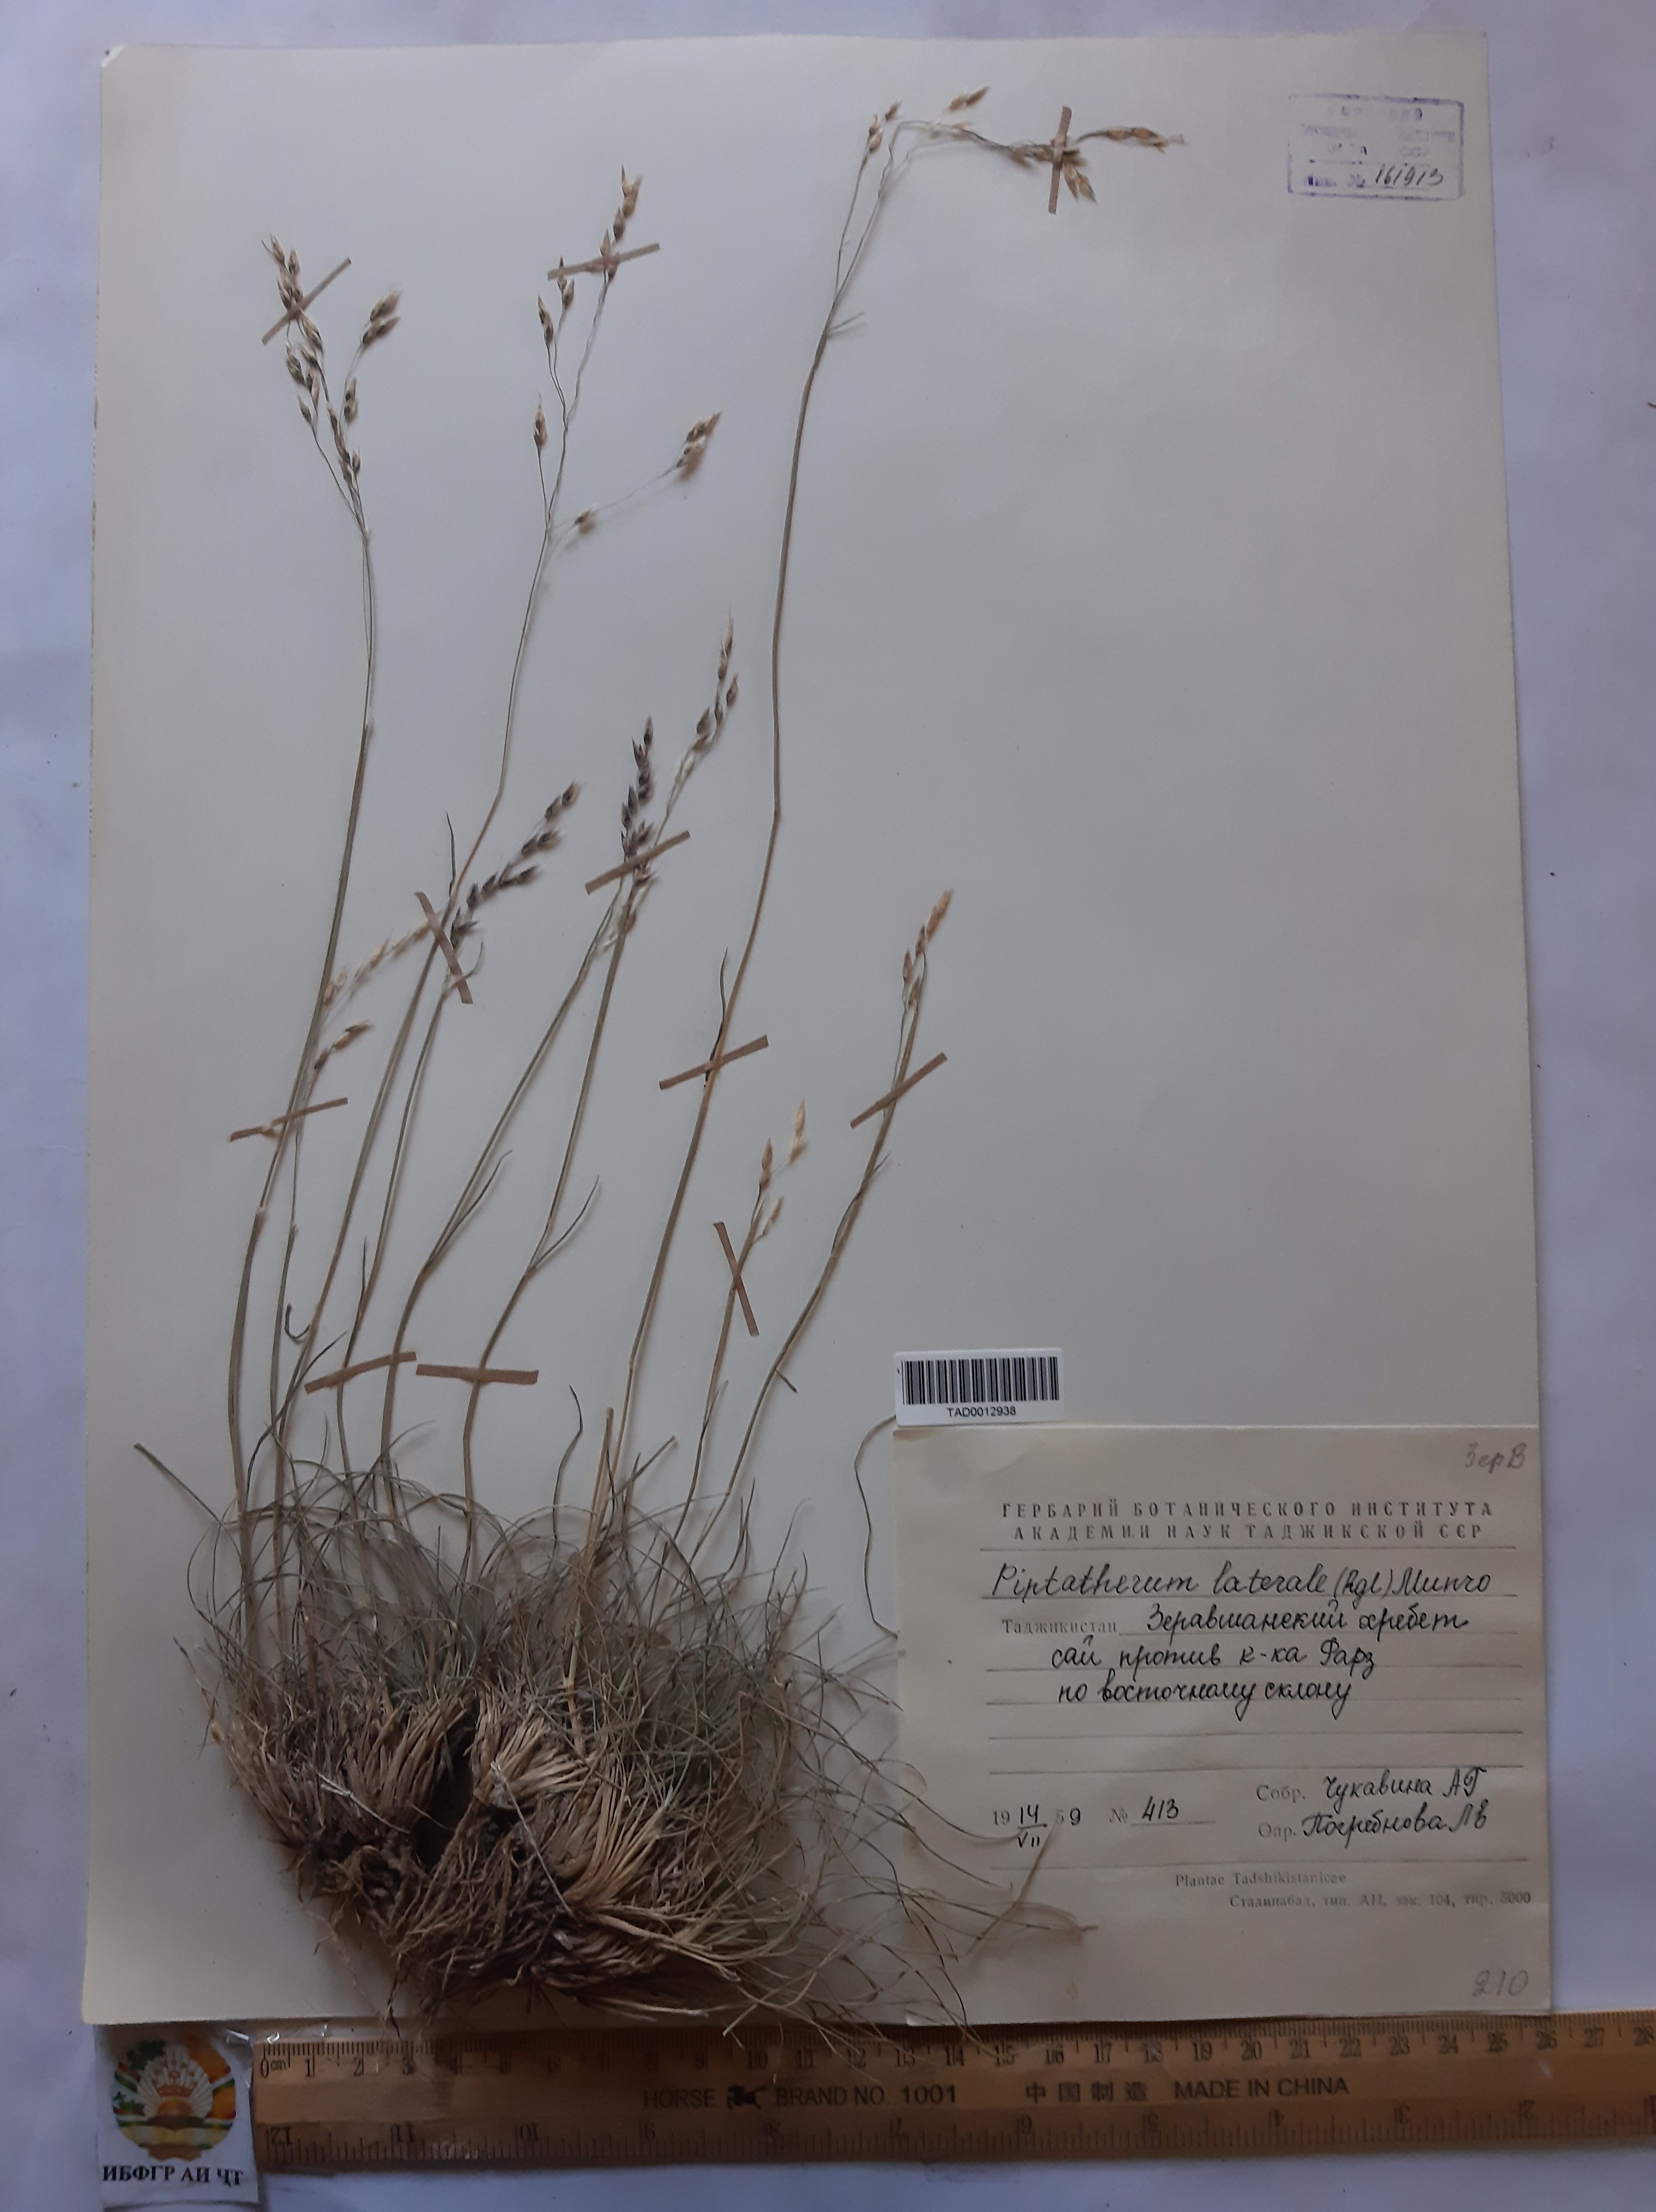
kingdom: Plantae
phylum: Tracheophyta
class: Liliopsida
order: Poales
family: Poaceae
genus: Piptatherum
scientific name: Piptatherum laterale
